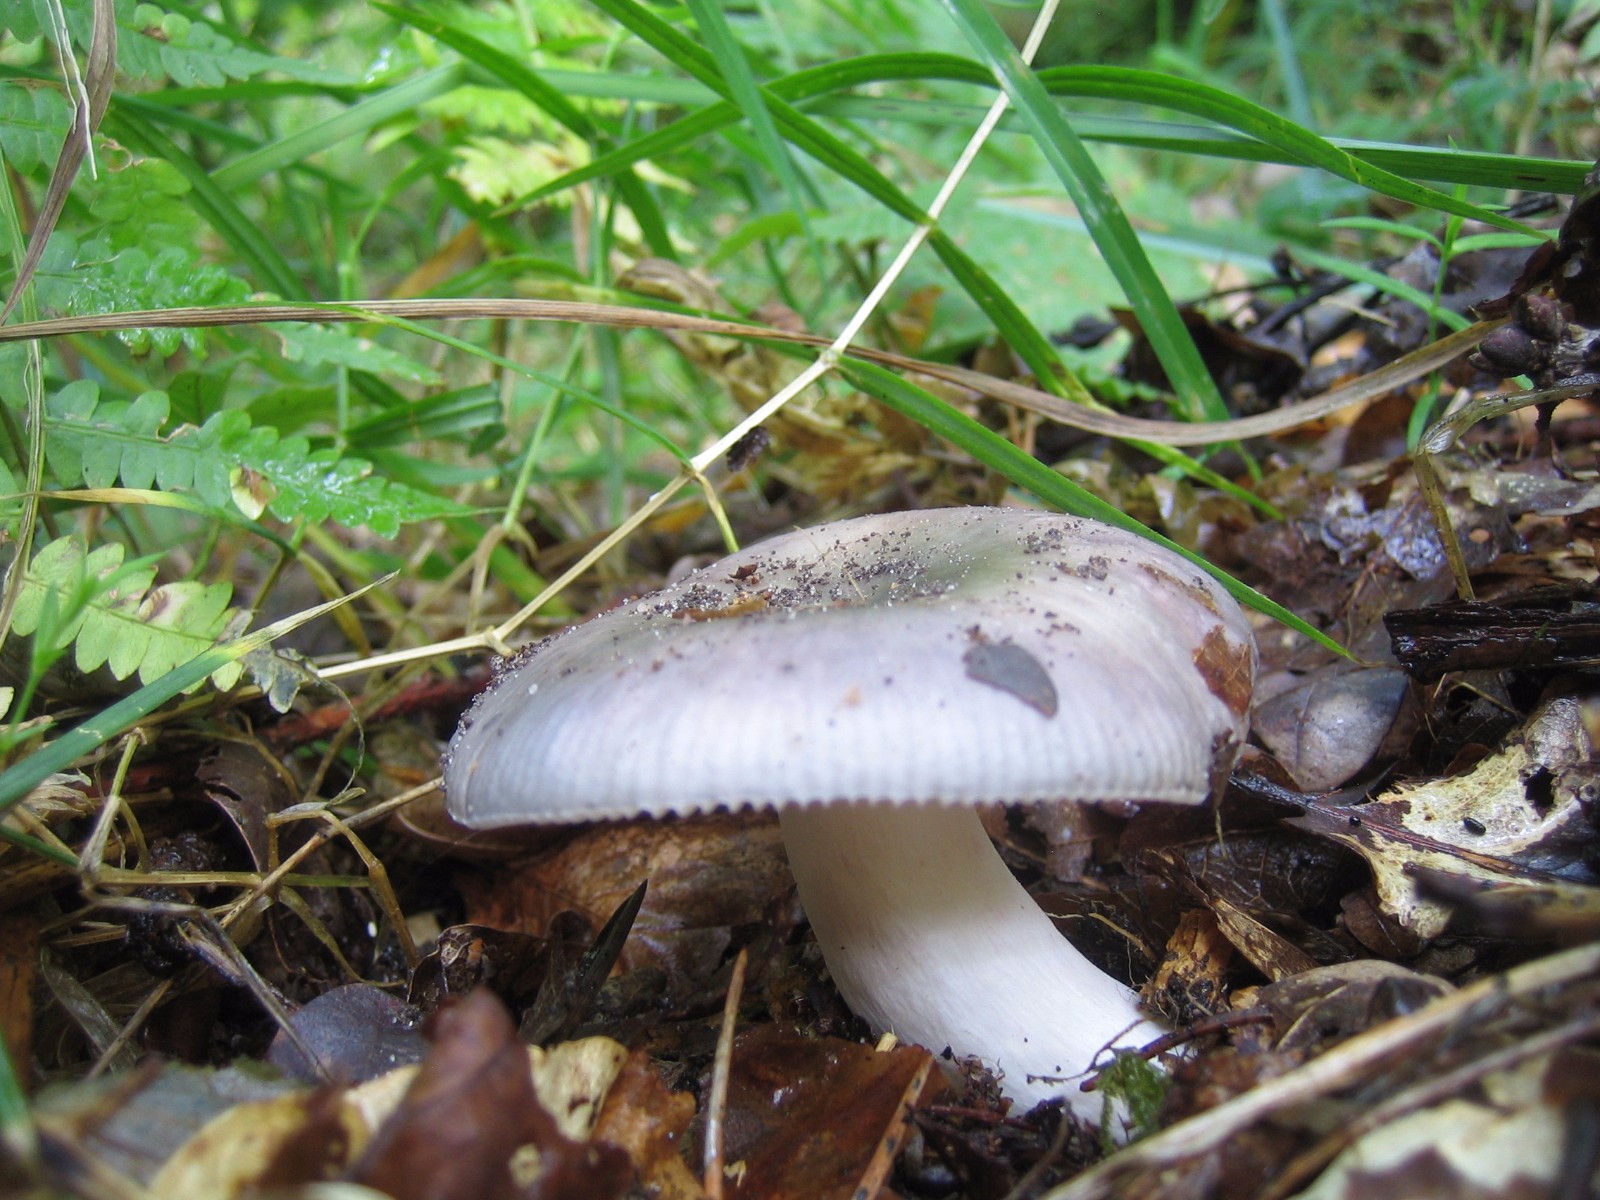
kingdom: Fungi
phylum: Basidiomycota
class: Agaricomycetes
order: Russulales
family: Russulaceae
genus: Russula
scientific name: Russula
